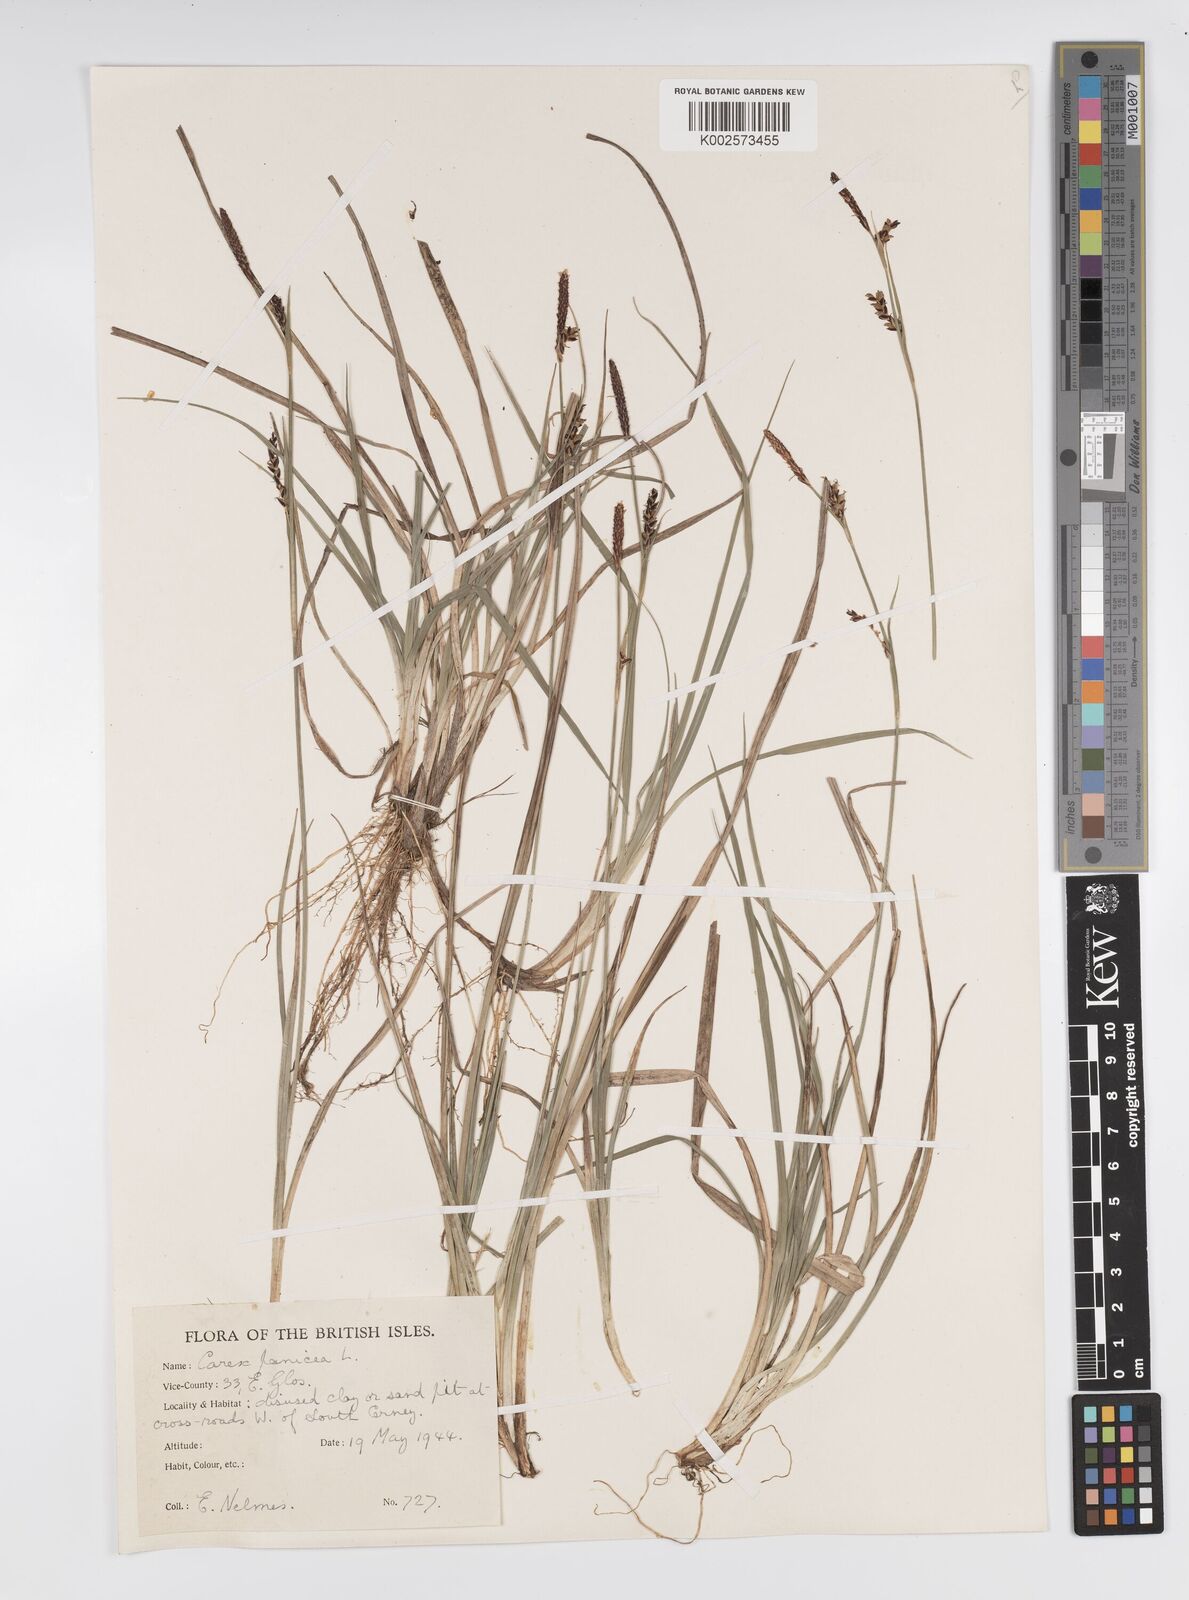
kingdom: Plantae
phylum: Tracheophyta
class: Liliopsida
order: Poales
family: Cyperaceae
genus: Carex
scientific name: Carex panicea
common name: Carnation sedge
